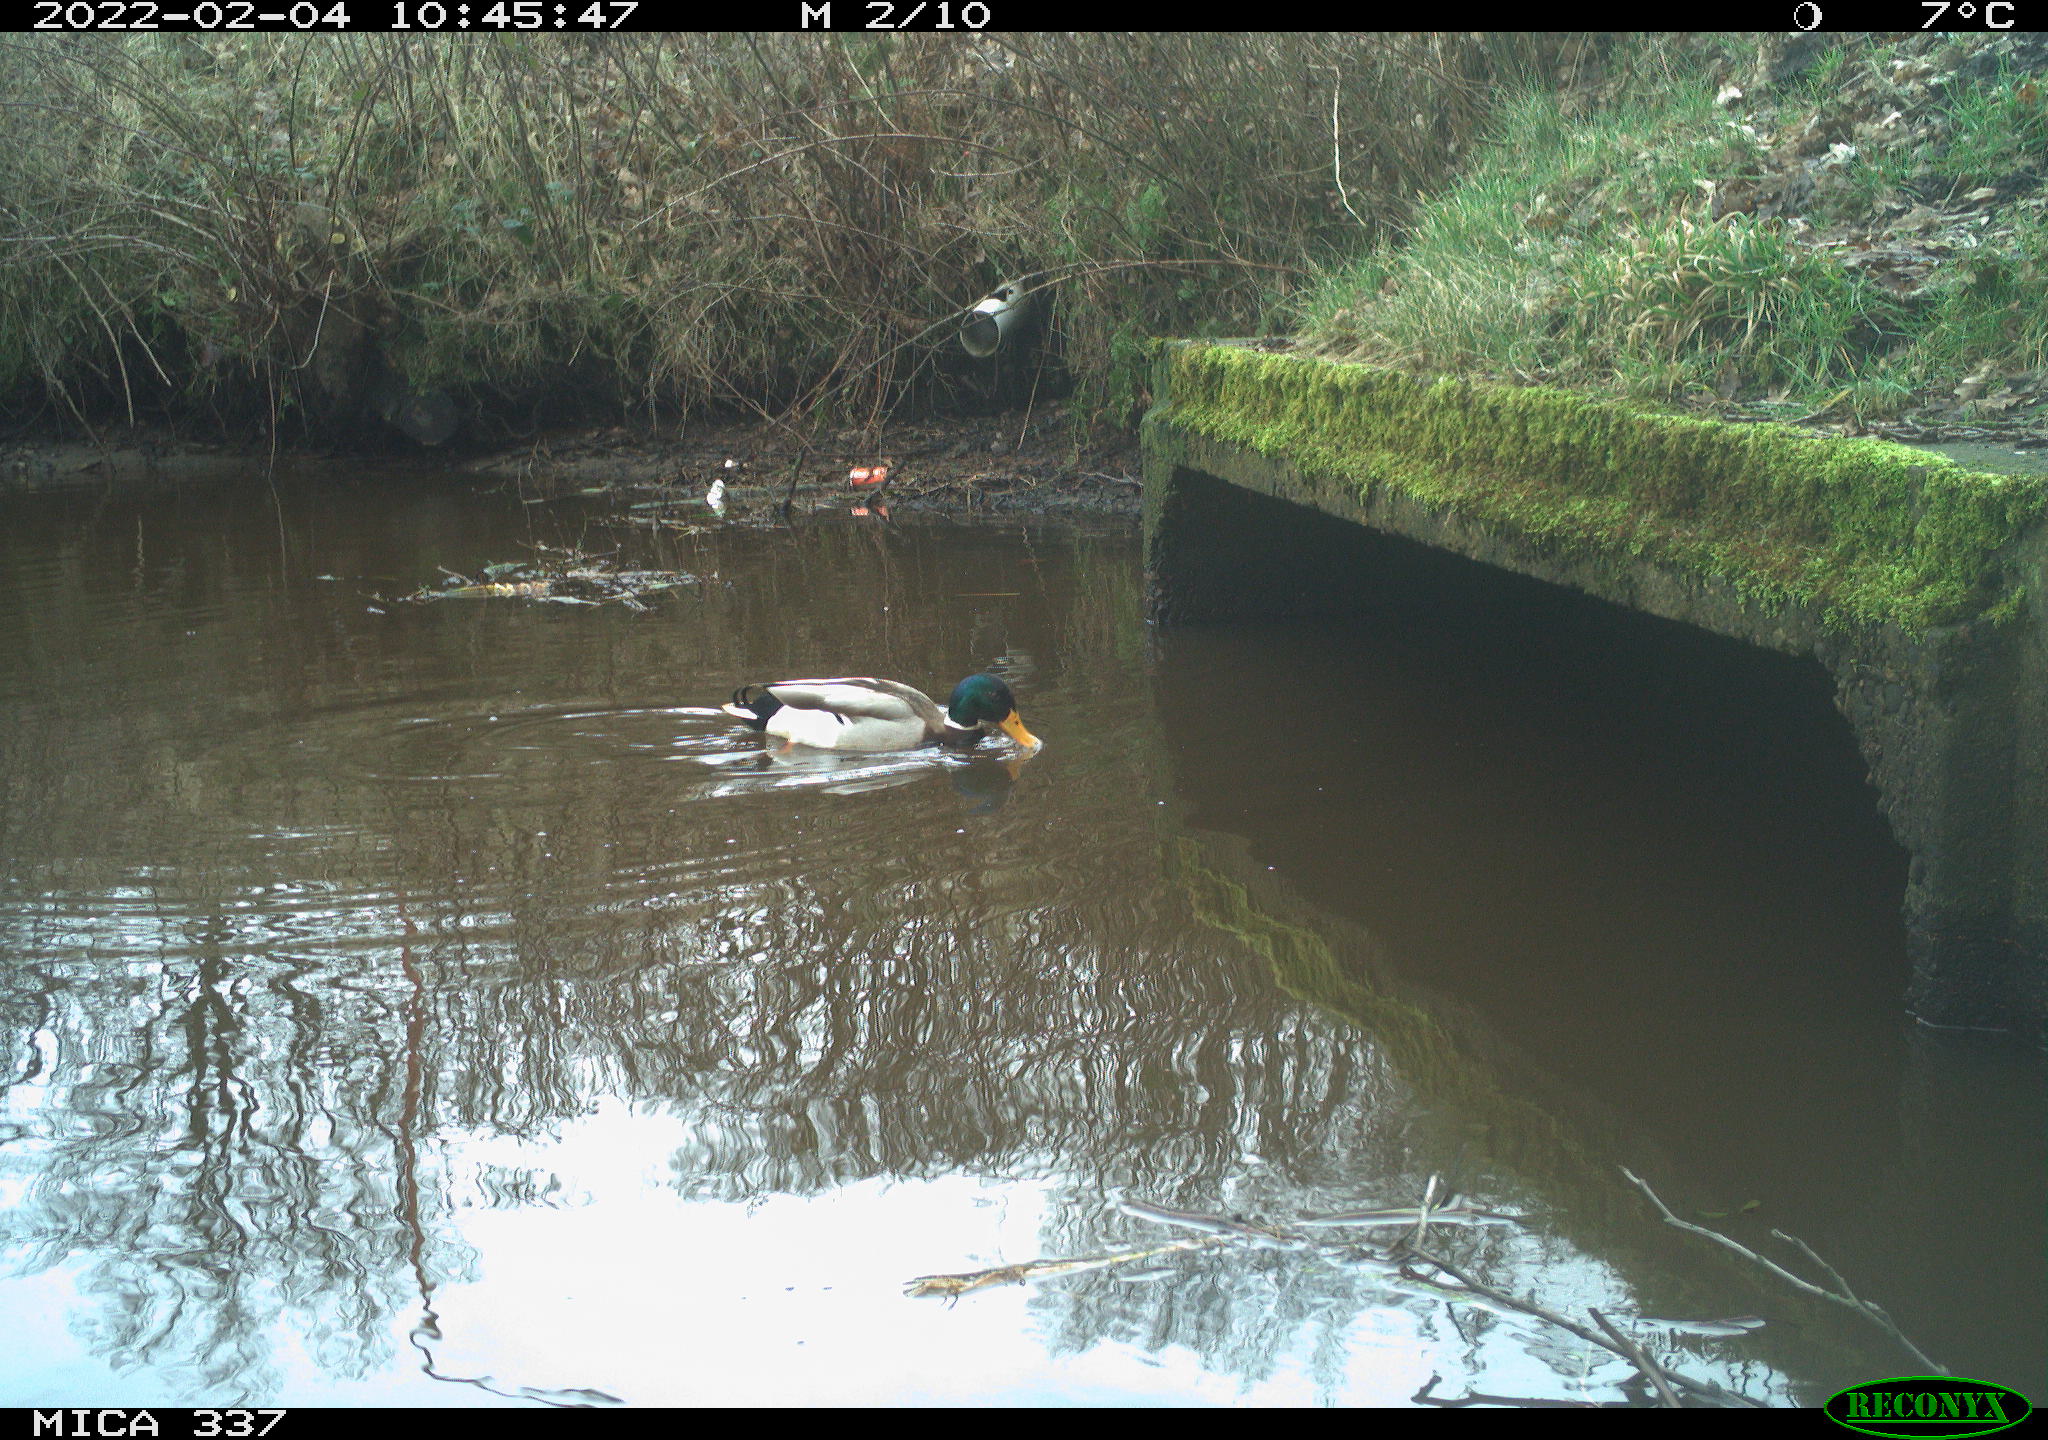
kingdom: Animalia
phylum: Chordata
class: Aves
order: Anseriformes
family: Anatidae
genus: Anas
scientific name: Anas platyrhynchos
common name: Mallard
